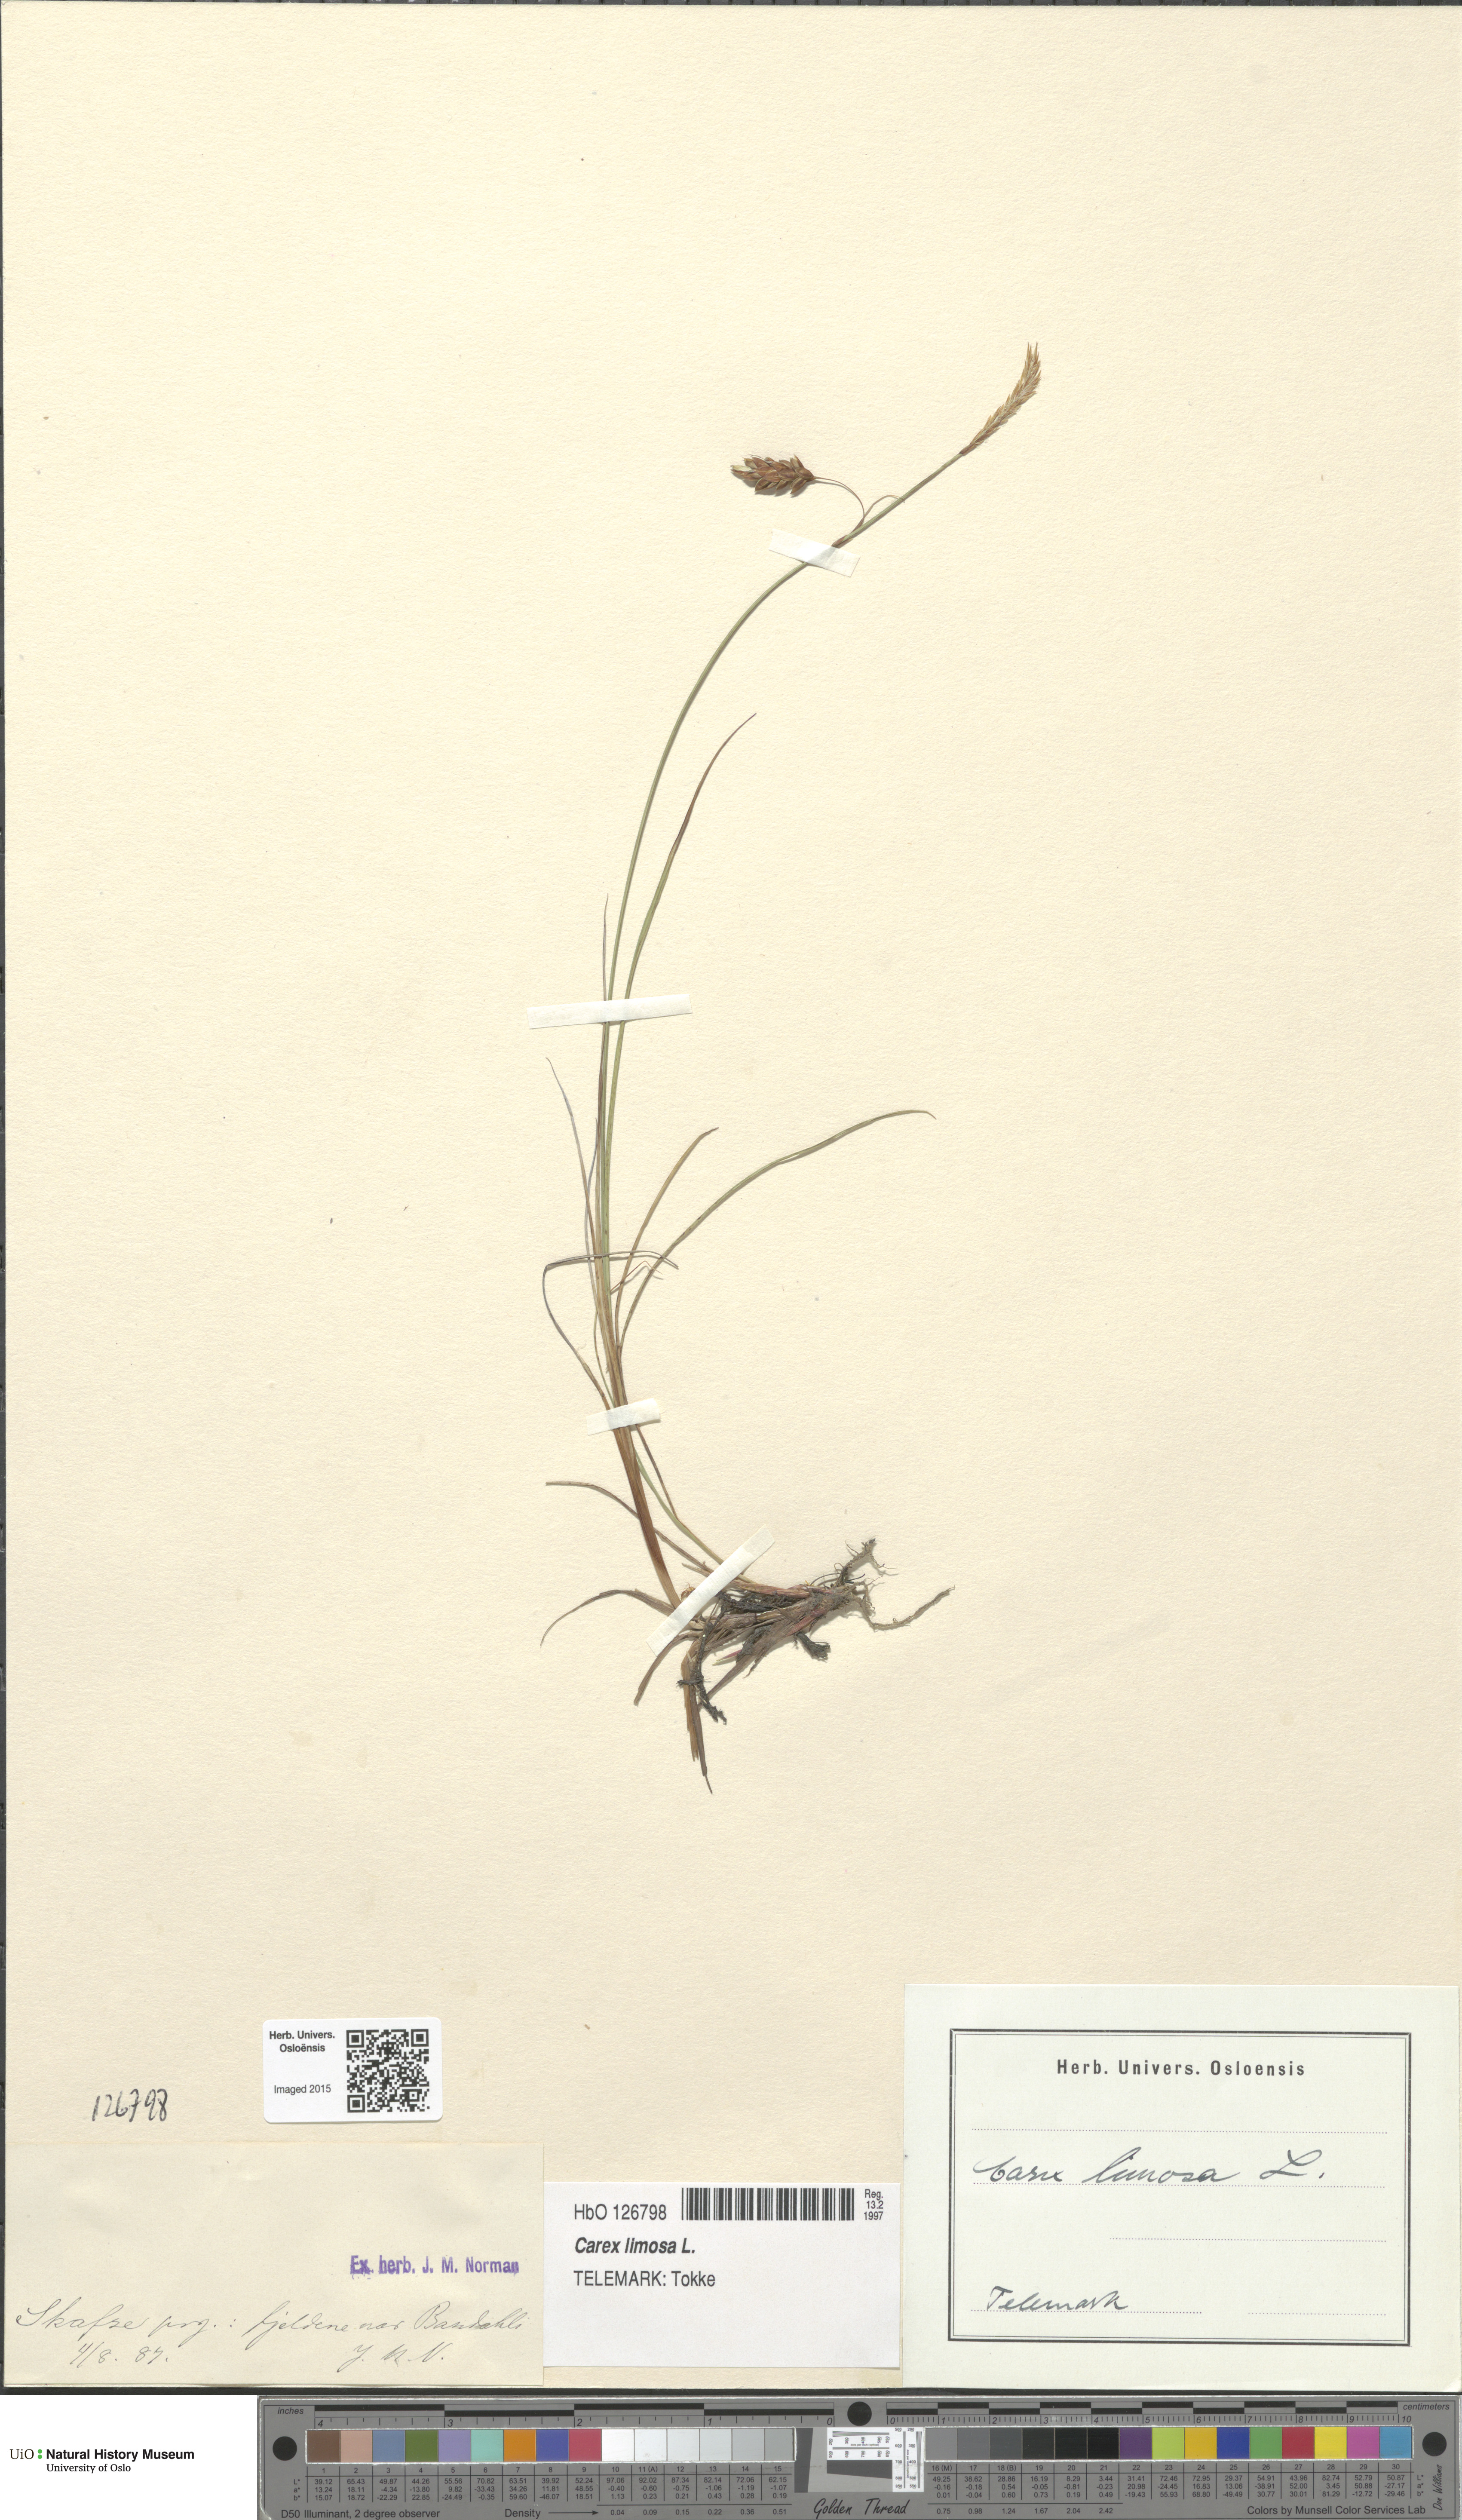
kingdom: Plantae
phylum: Tracheophyta
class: Liliopsida
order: Poales
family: Cyperaceae
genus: Carex
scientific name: Carex limosa
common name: Bog sedge
